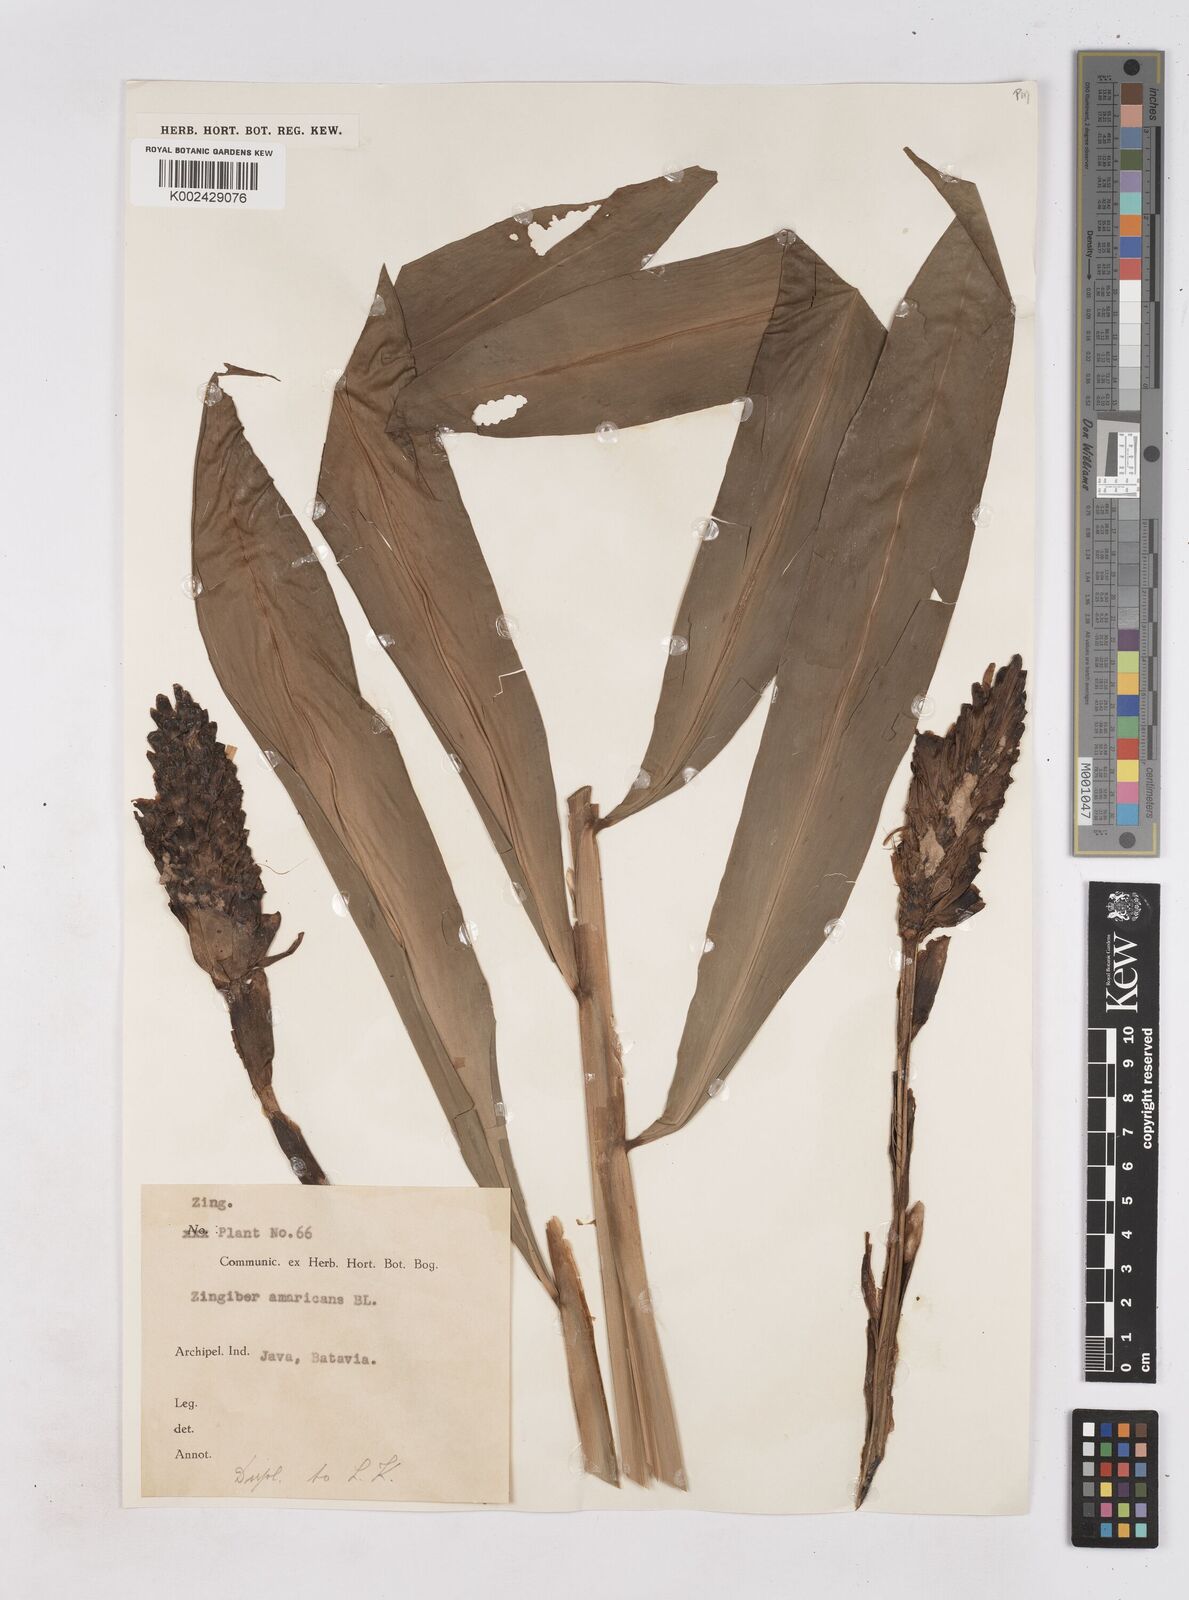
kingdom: Plantae
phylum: Tracheophyta
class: Liliopsida
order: Zingiberales
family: Zingiberaceae
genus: Zingiber
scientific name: Zingiber zerumbet
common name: Bitter ginger
